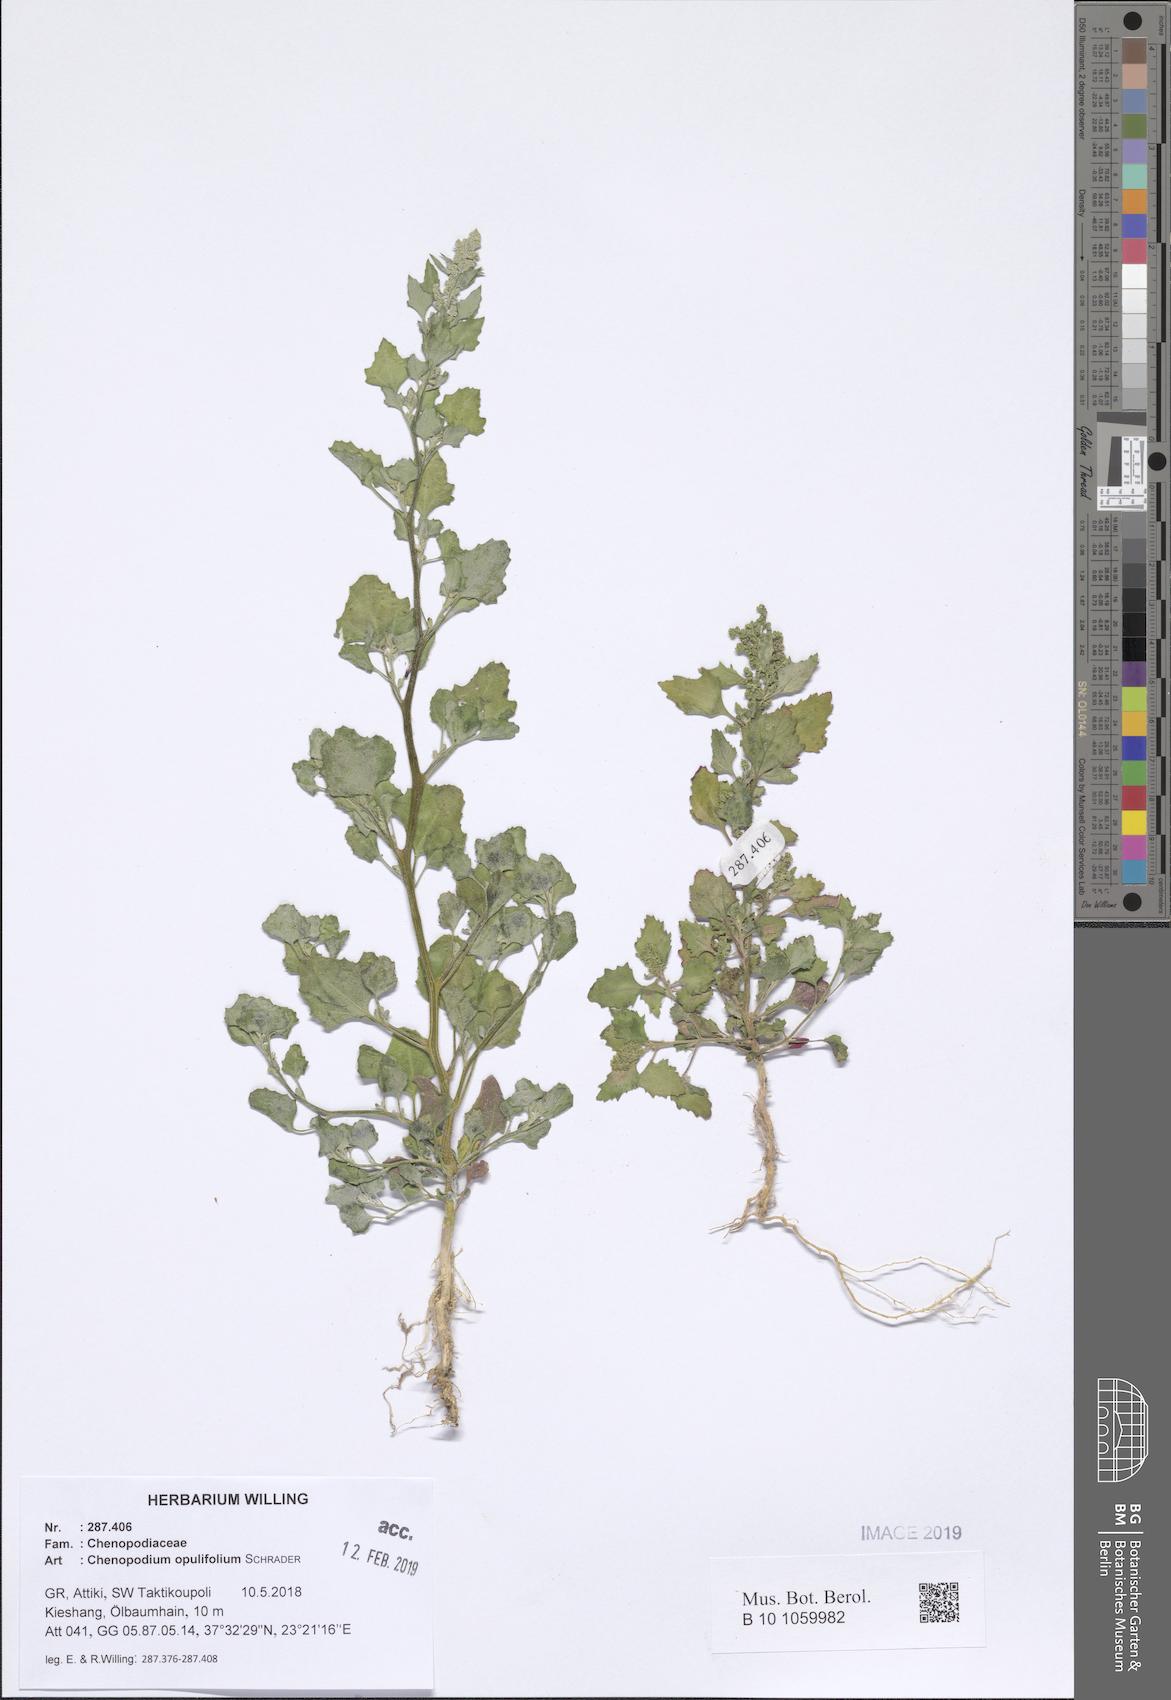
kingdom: Plantae
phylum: Tracheophyta
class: Magnoliopsida
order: Caryophyllales
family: Amaranthaceae
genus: Chenopodium
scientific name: Chenopodium opulifolium
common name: Grey goosefoot
